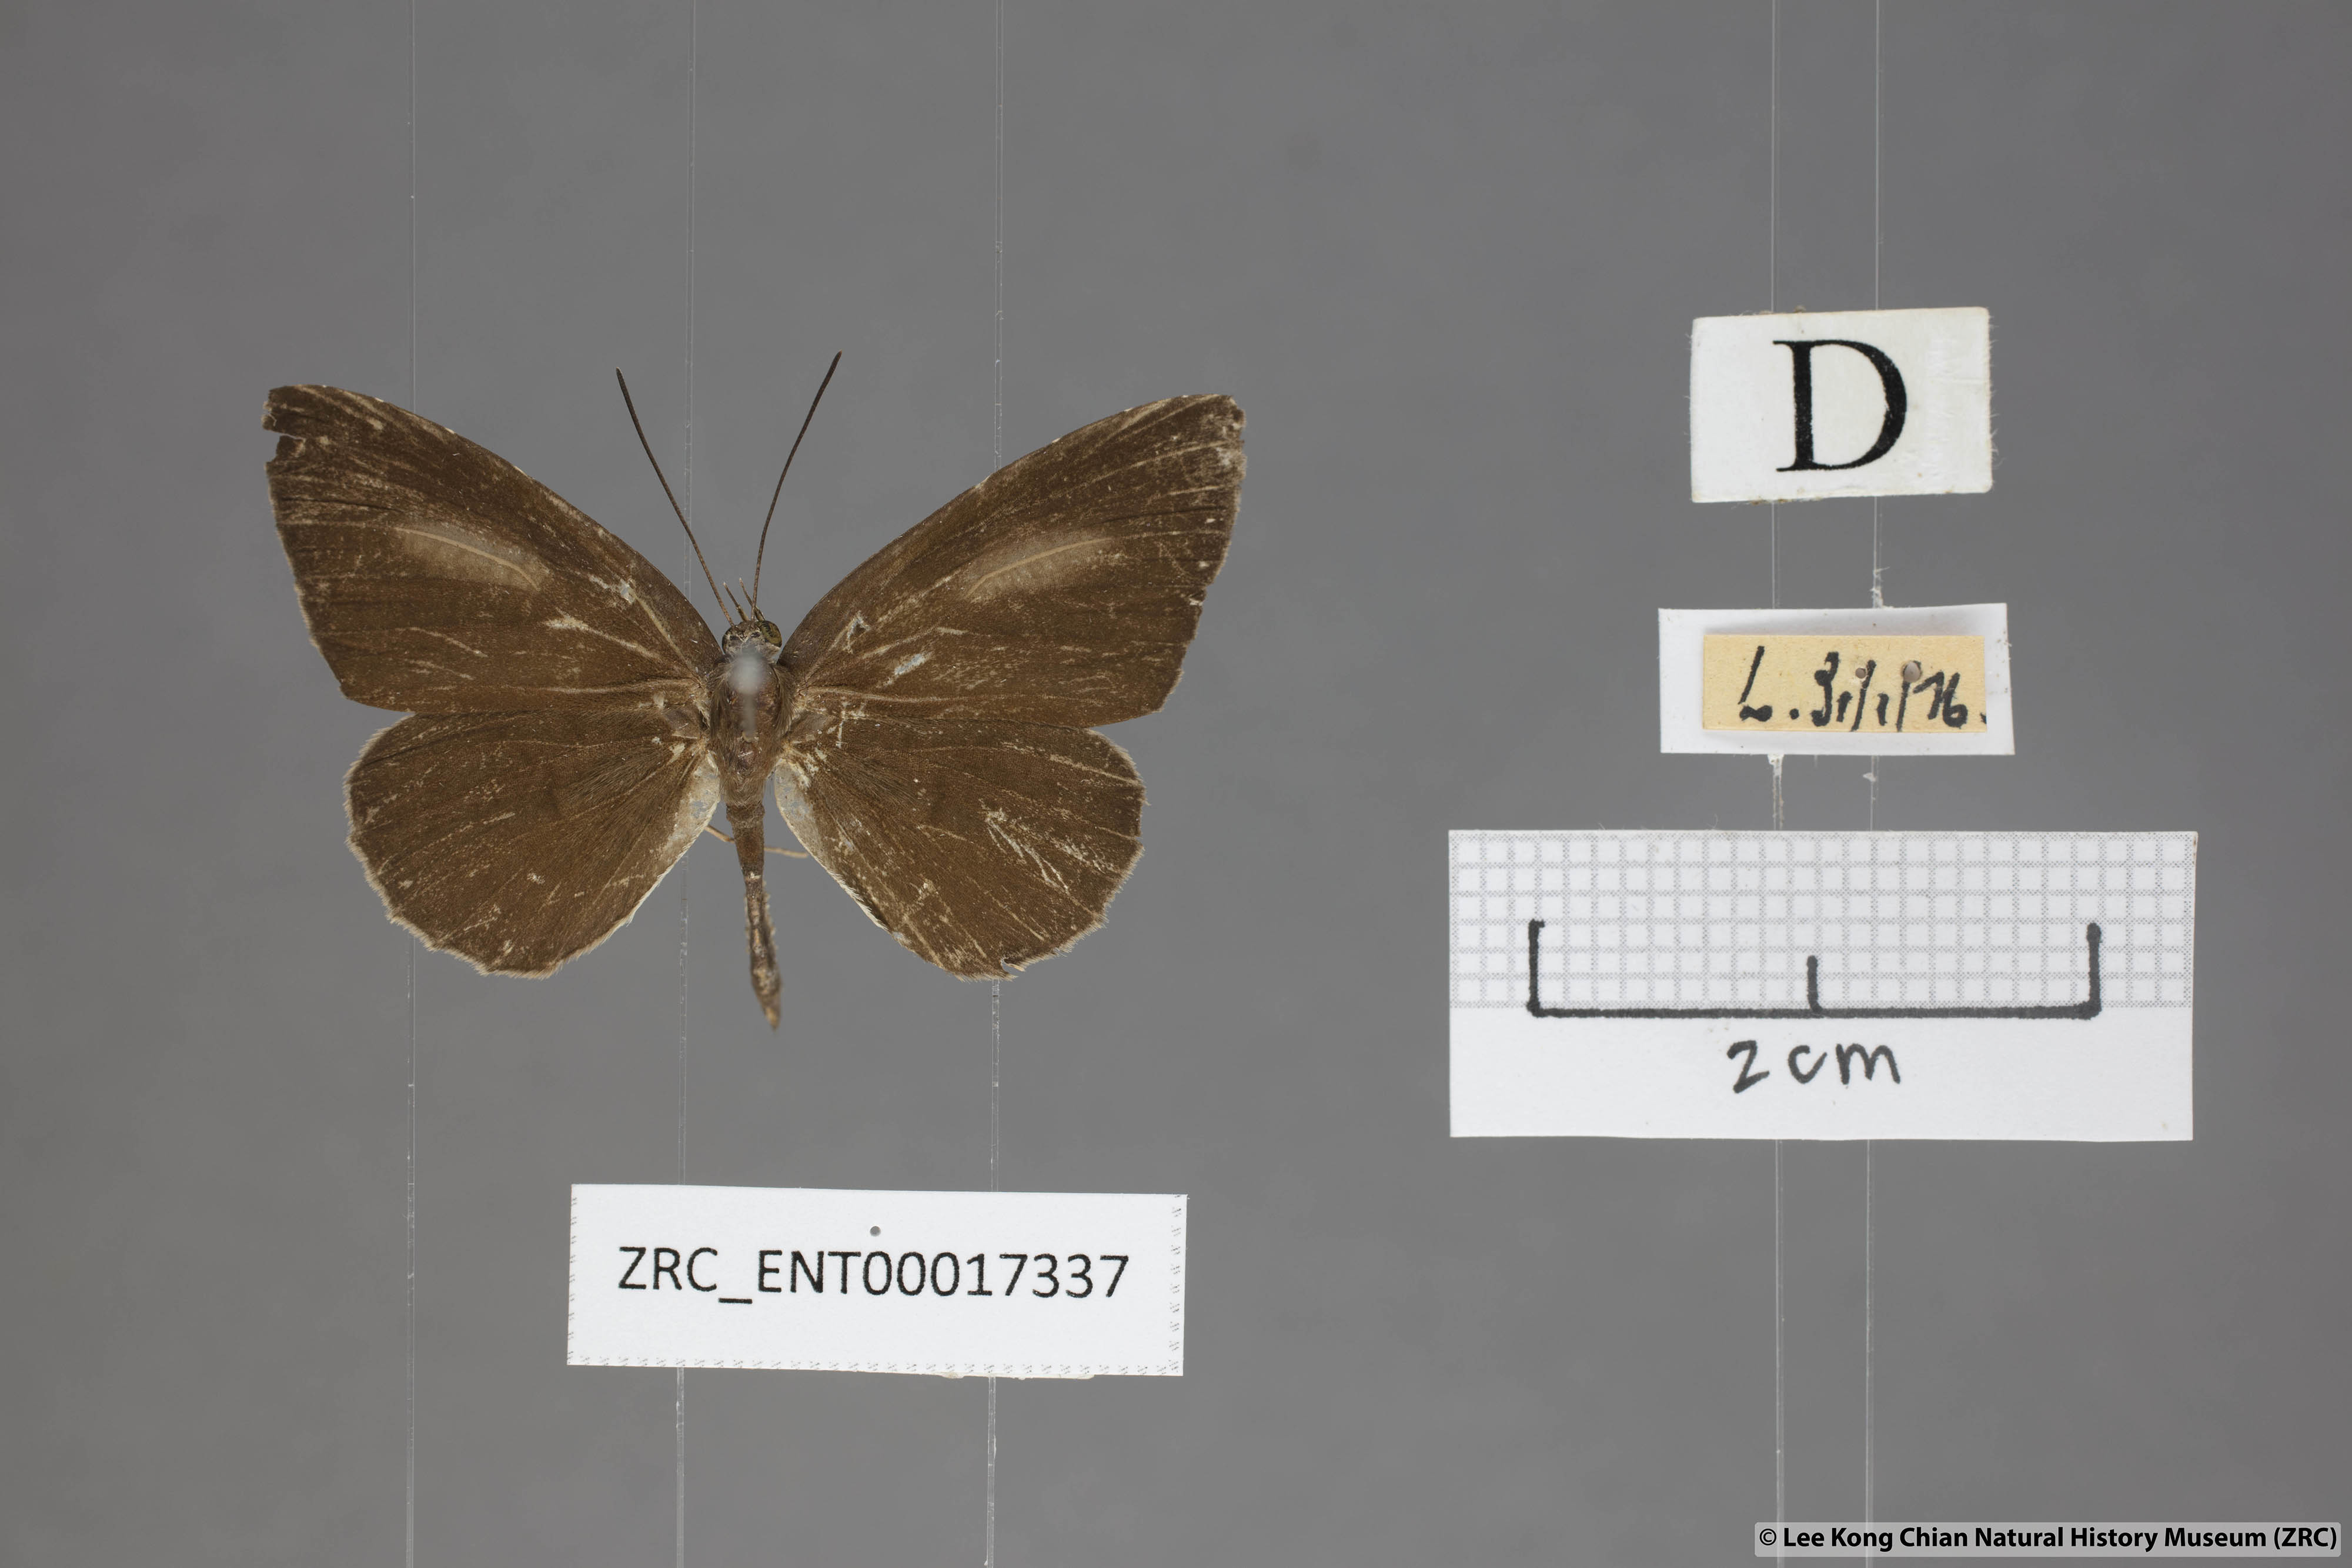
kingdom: Animalia
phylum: Arthropoda
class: Insecta
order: Lepidoptera
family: Lycaenidae
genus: Allotinus
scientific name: Allotinus sarastes
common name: Peninsular darkie
